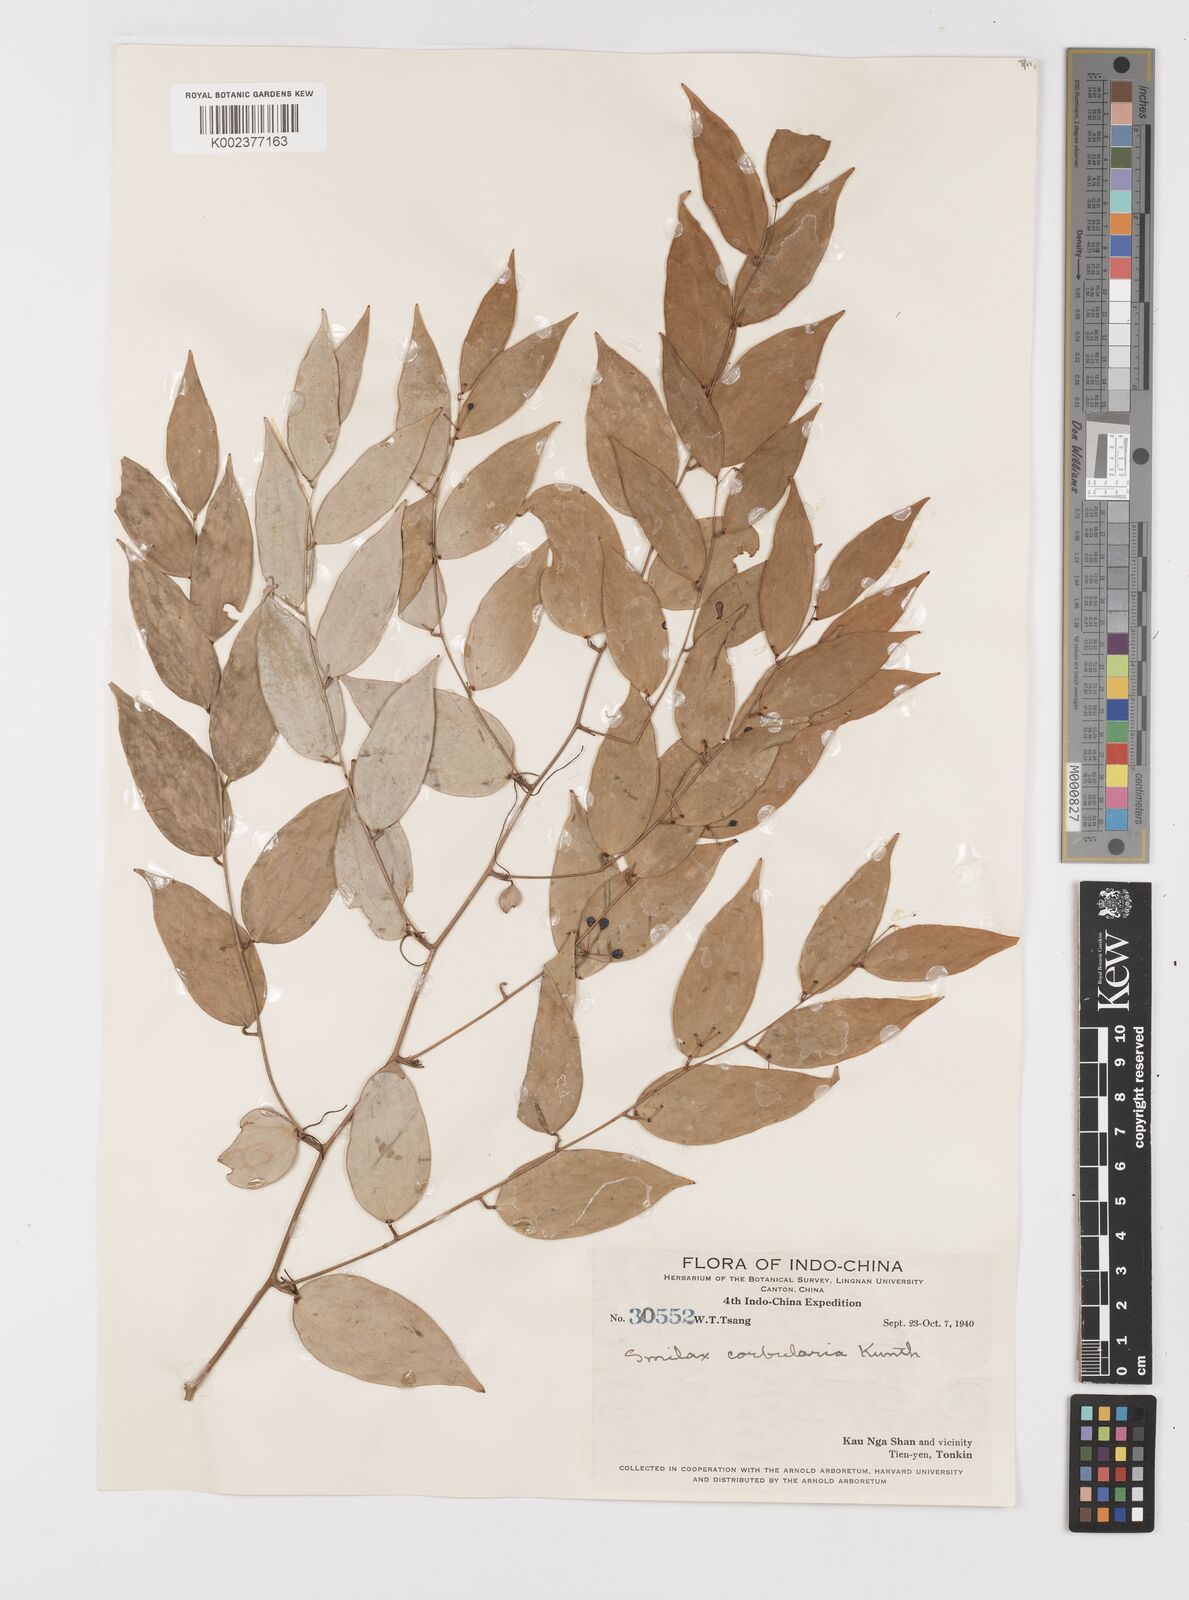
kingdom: Plantae
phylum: Tracheophyta
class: Liliopsida
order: Liliales
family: Smilacaceae
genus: Smilax
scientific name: Smilax corbularia
